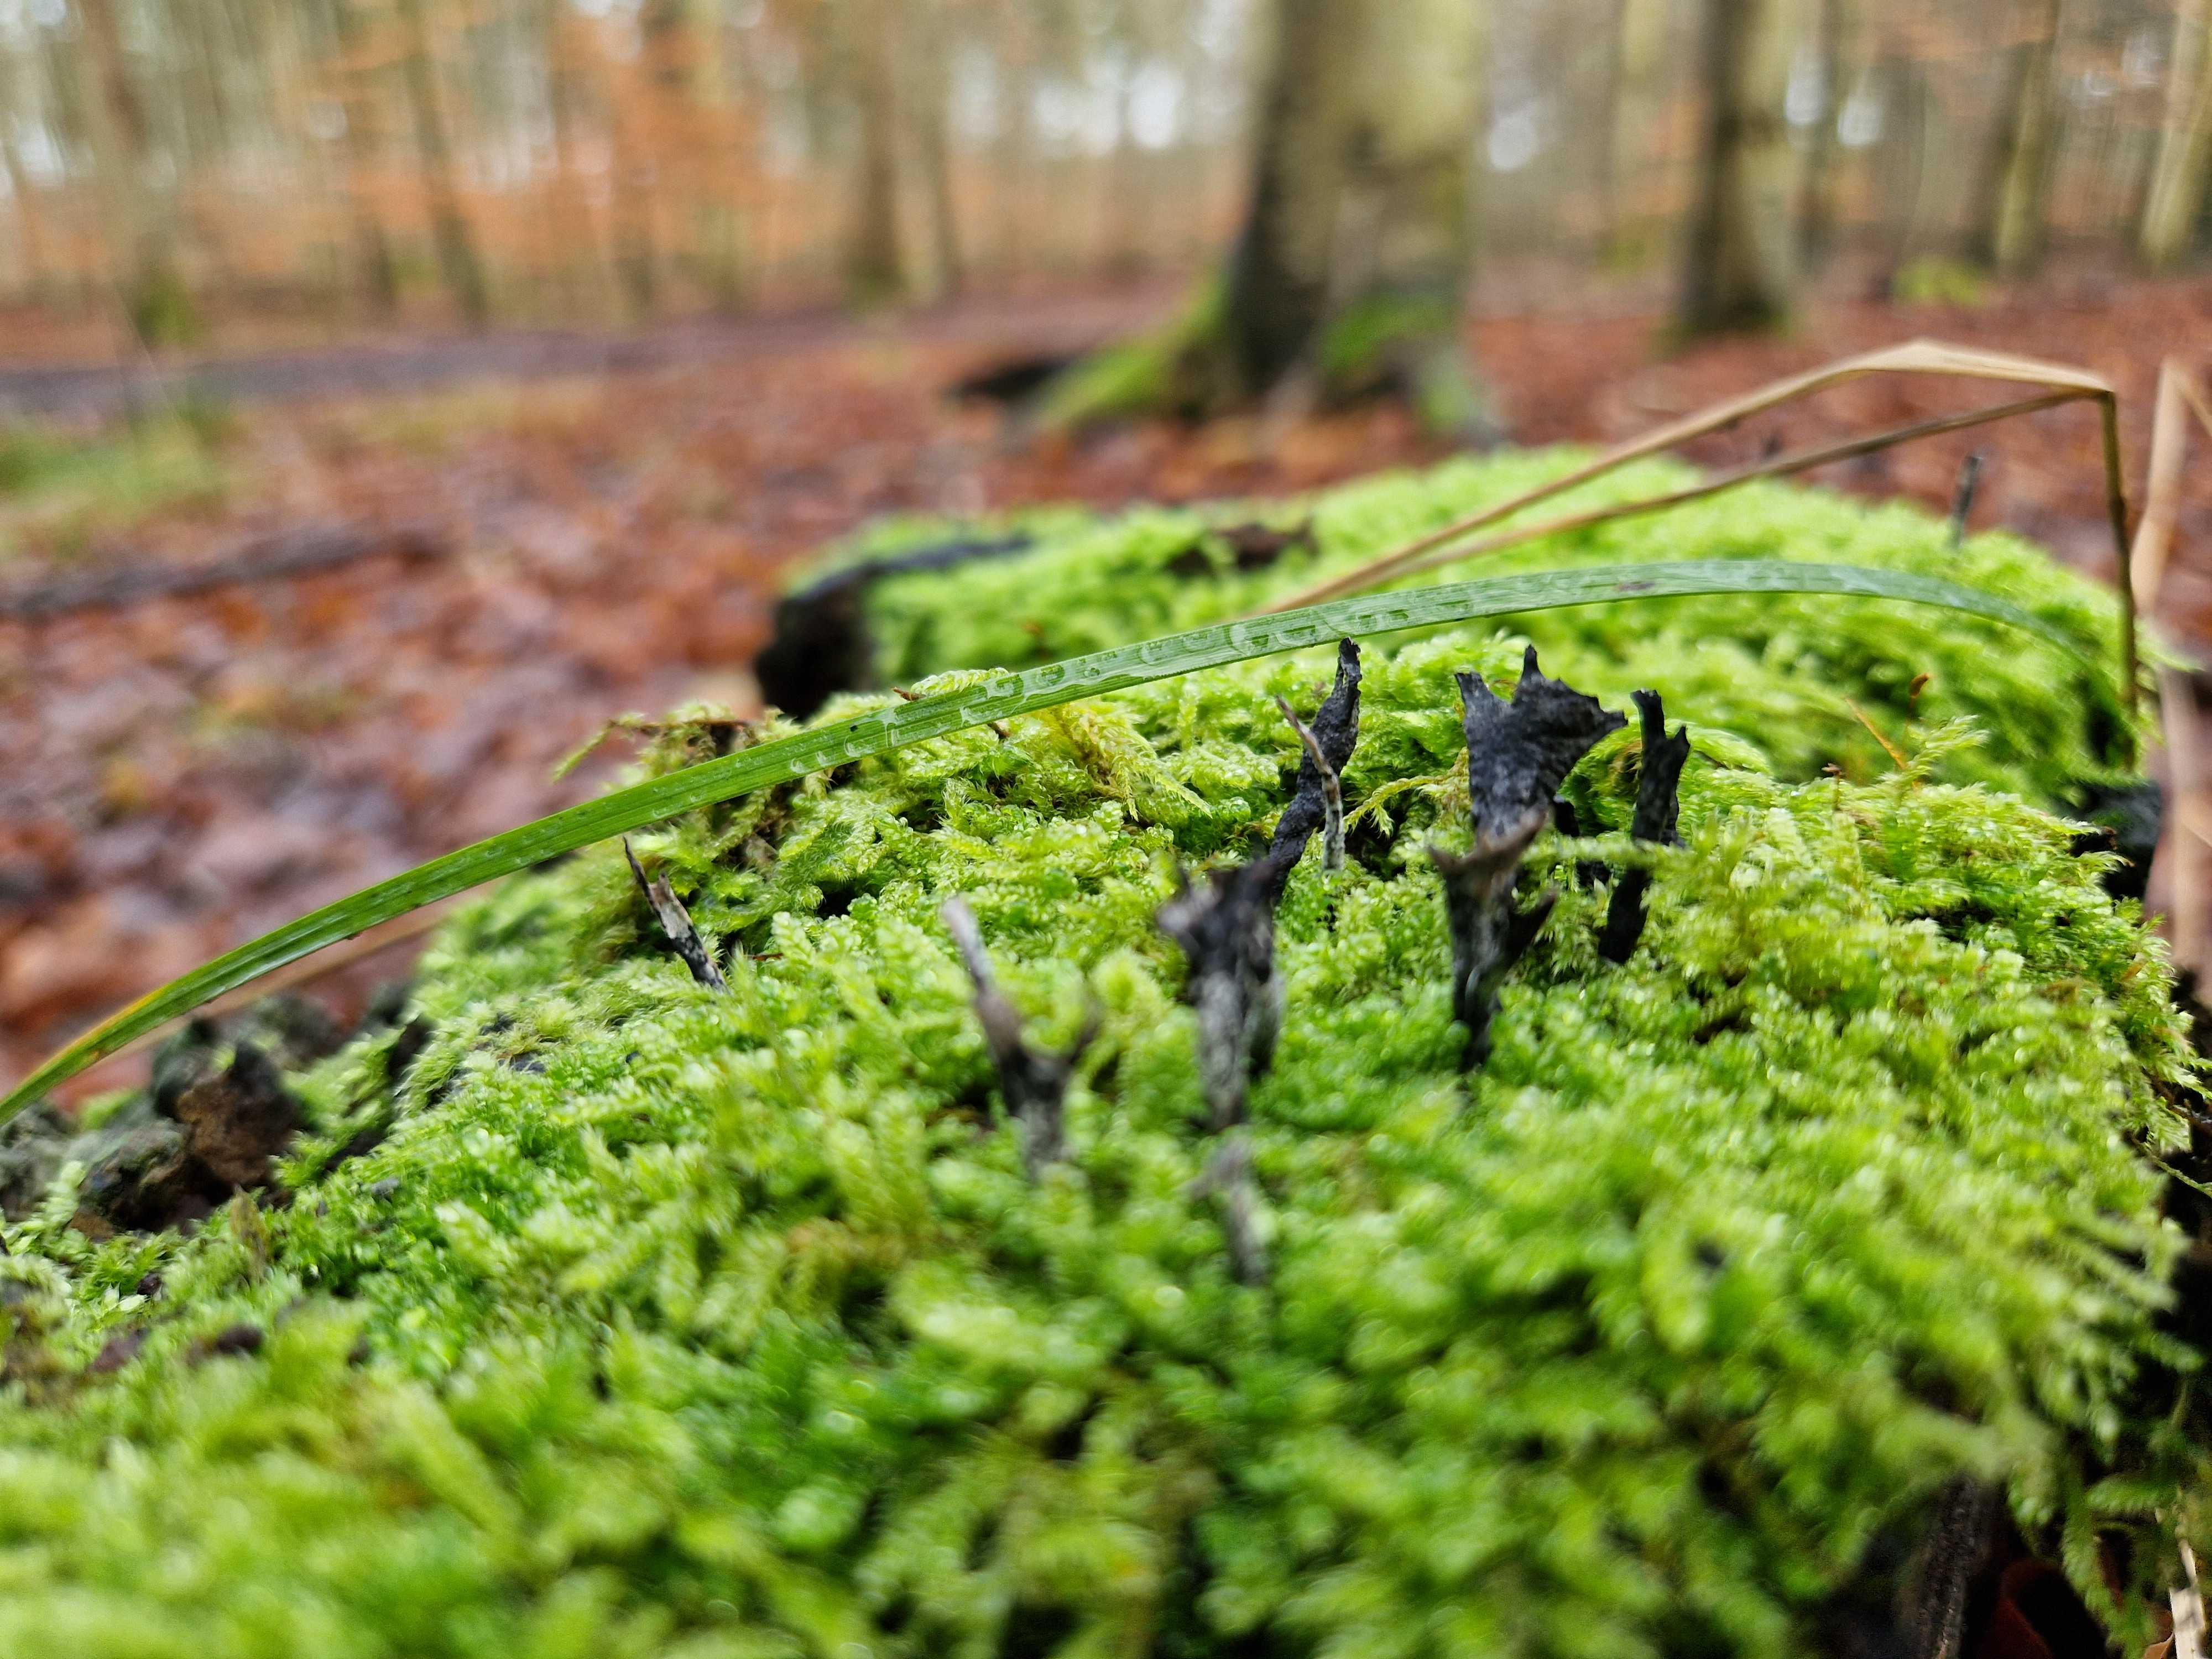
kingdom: Fungi
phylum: Ascomycota
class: Sordariomycetes
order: Xylariales
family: Xylariaceae
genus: Xylaria
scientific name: Xylaria hypoxylon
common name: grenet stødsvamp
